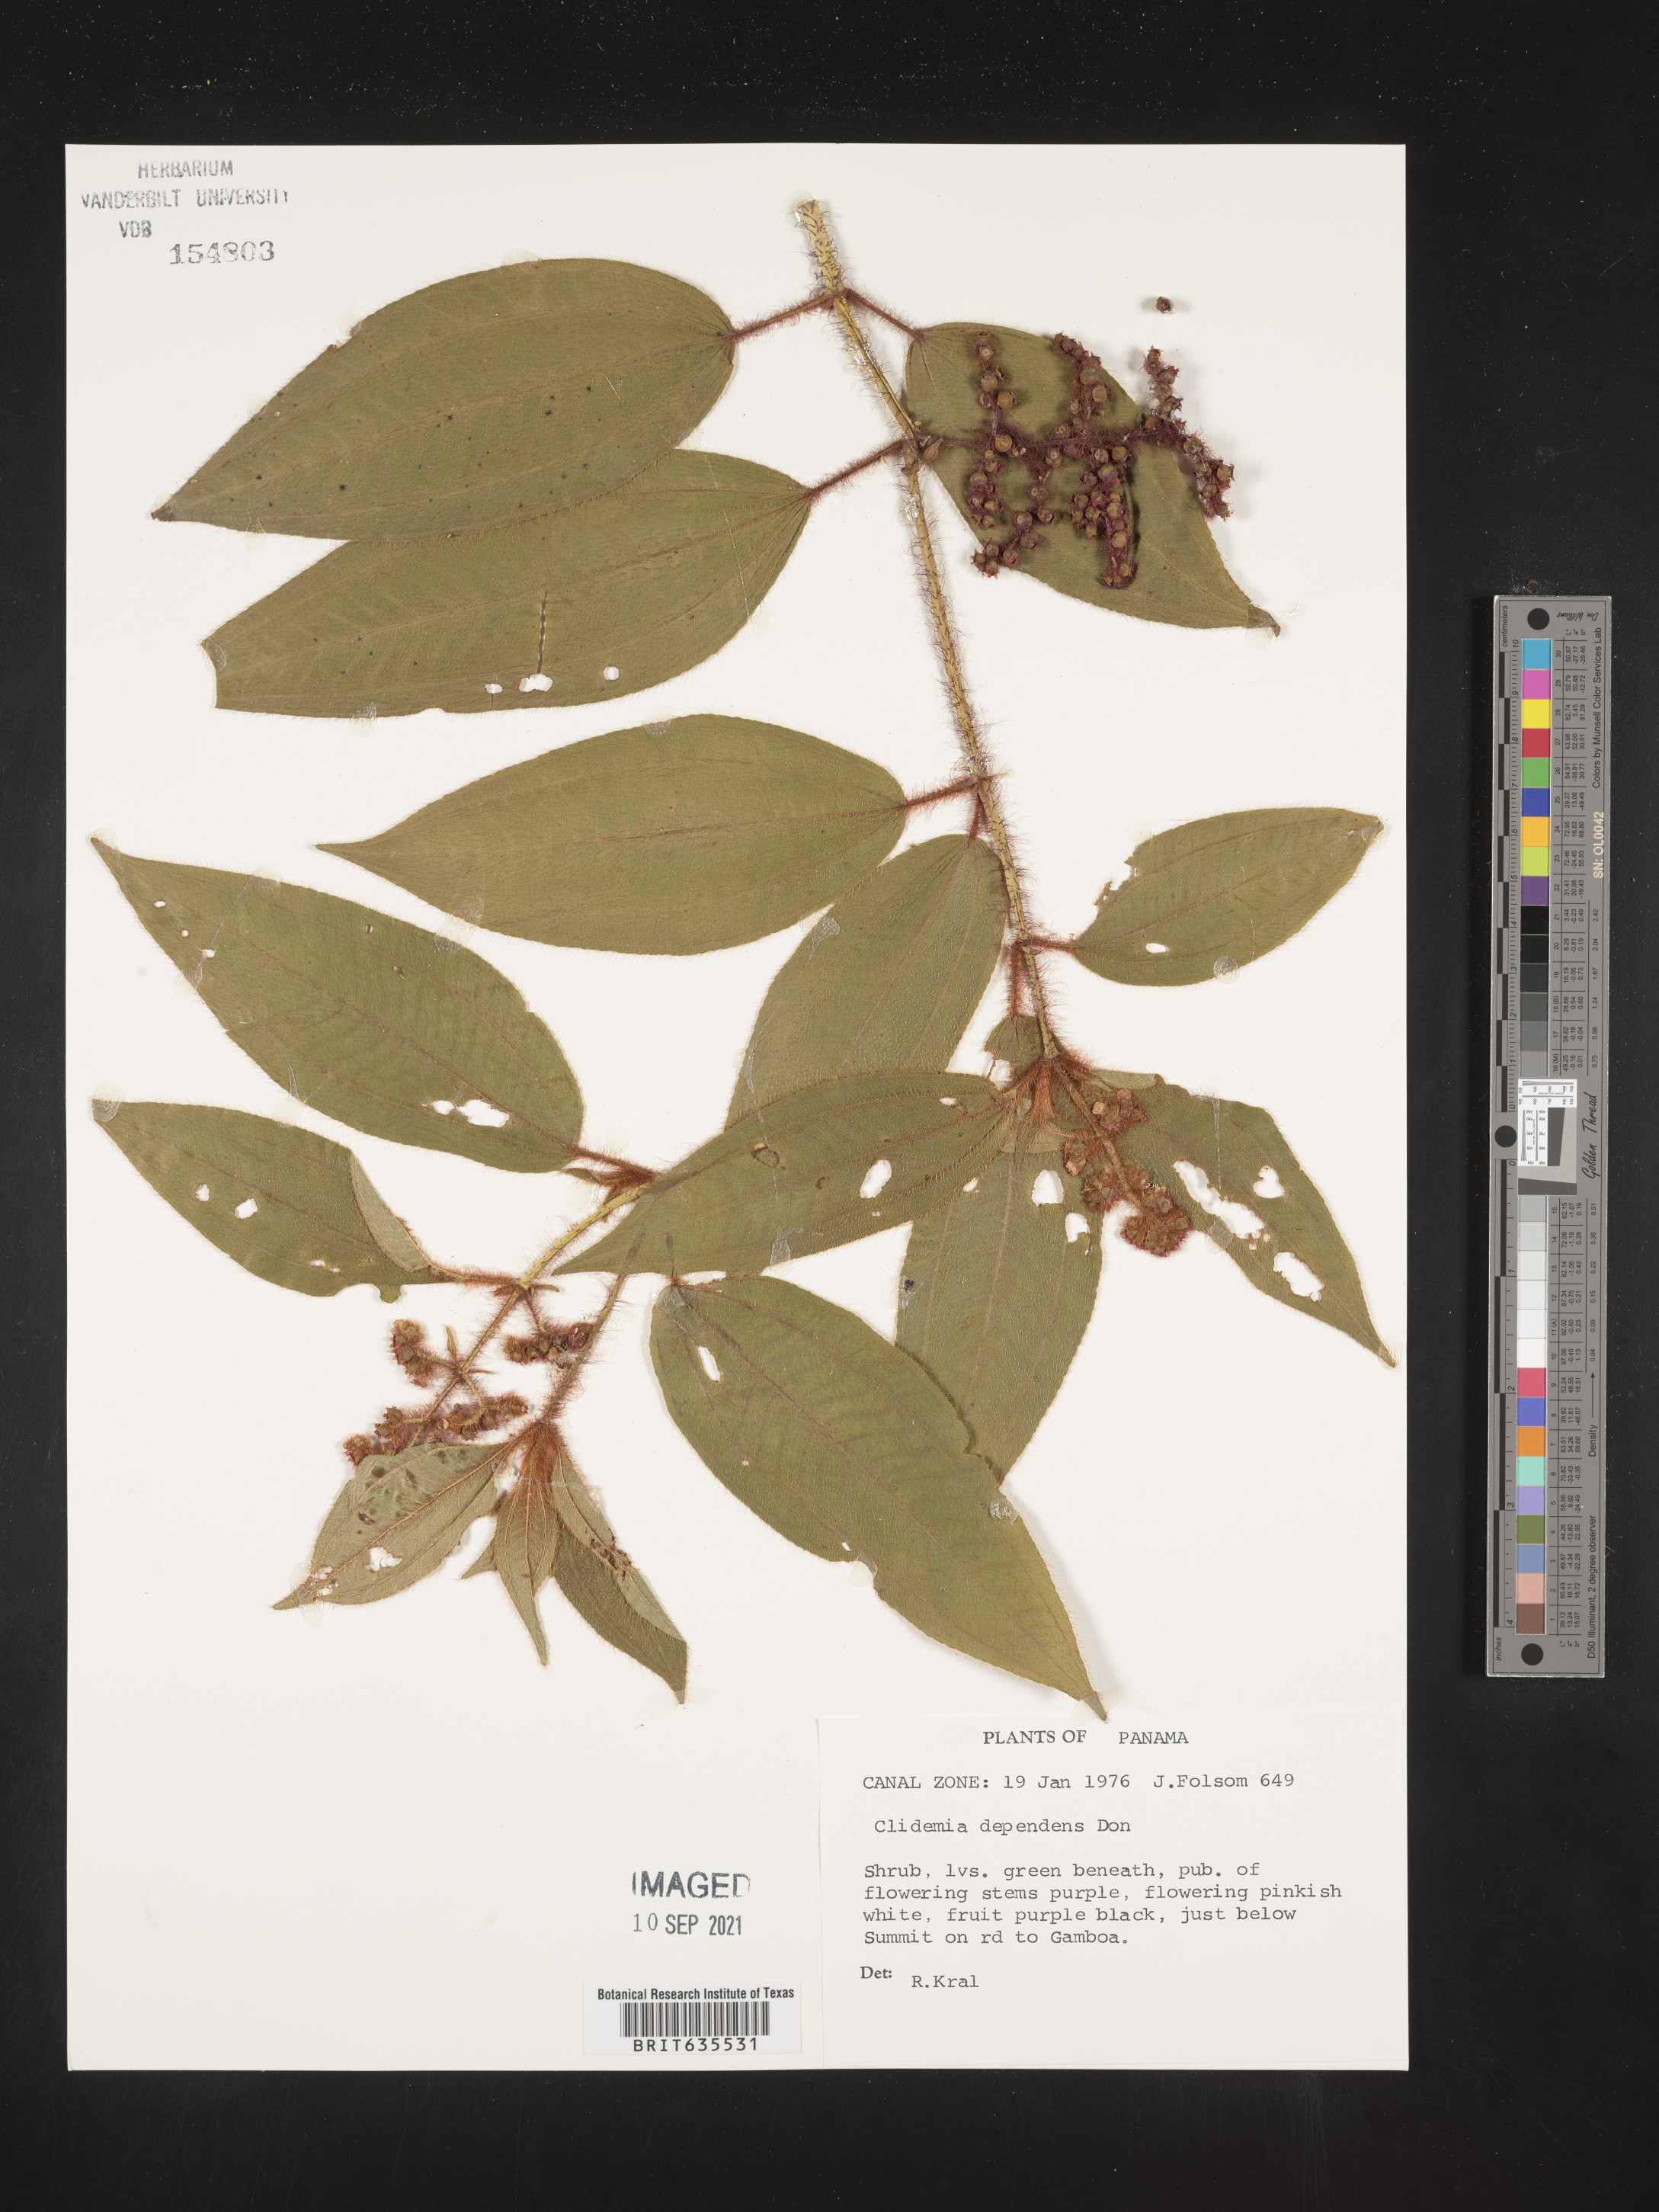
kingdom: Plantae
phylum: Tracheophyta
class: Magnoliopsida
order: Myrtales
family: Melastomataceae
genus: Miconia
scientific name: Miconia
